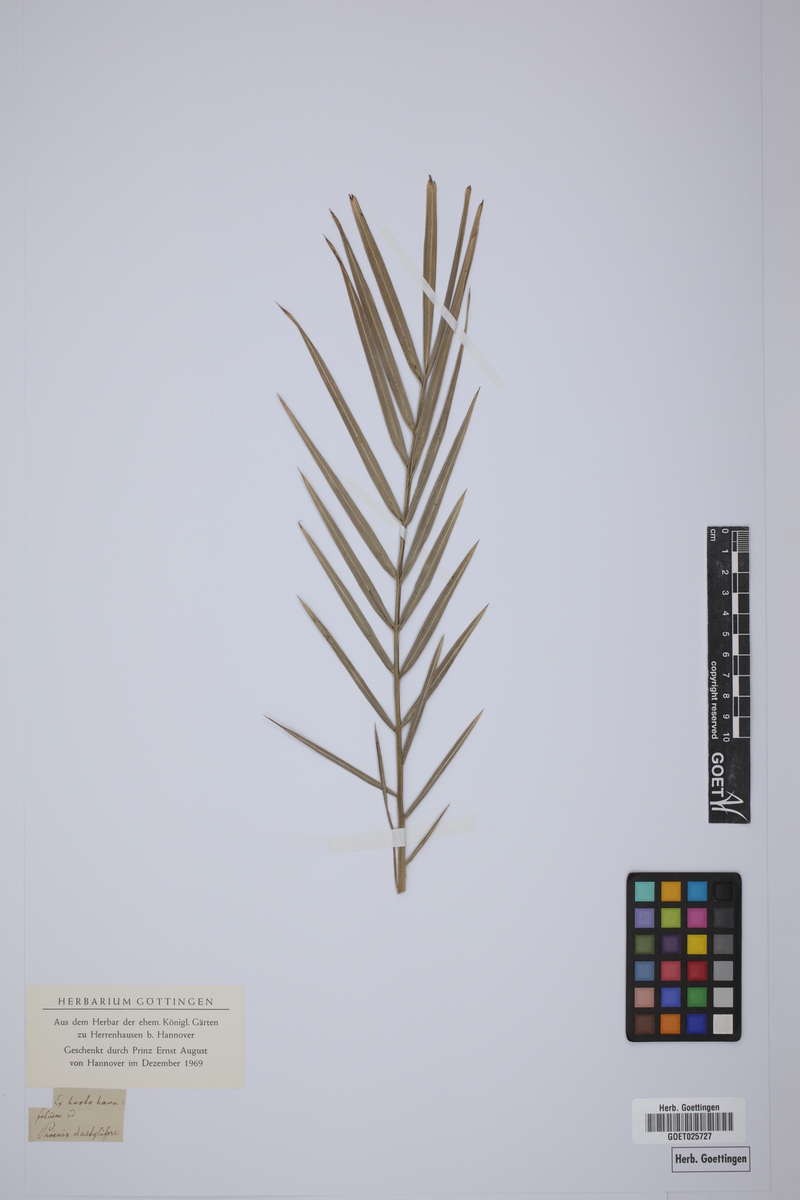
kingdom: Plantae
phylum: Tracheophyta
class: Liliopsida
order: Arecales
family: Arecaceae
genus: Phoenix
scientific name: Phoenix dactylifera
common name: Date palm
